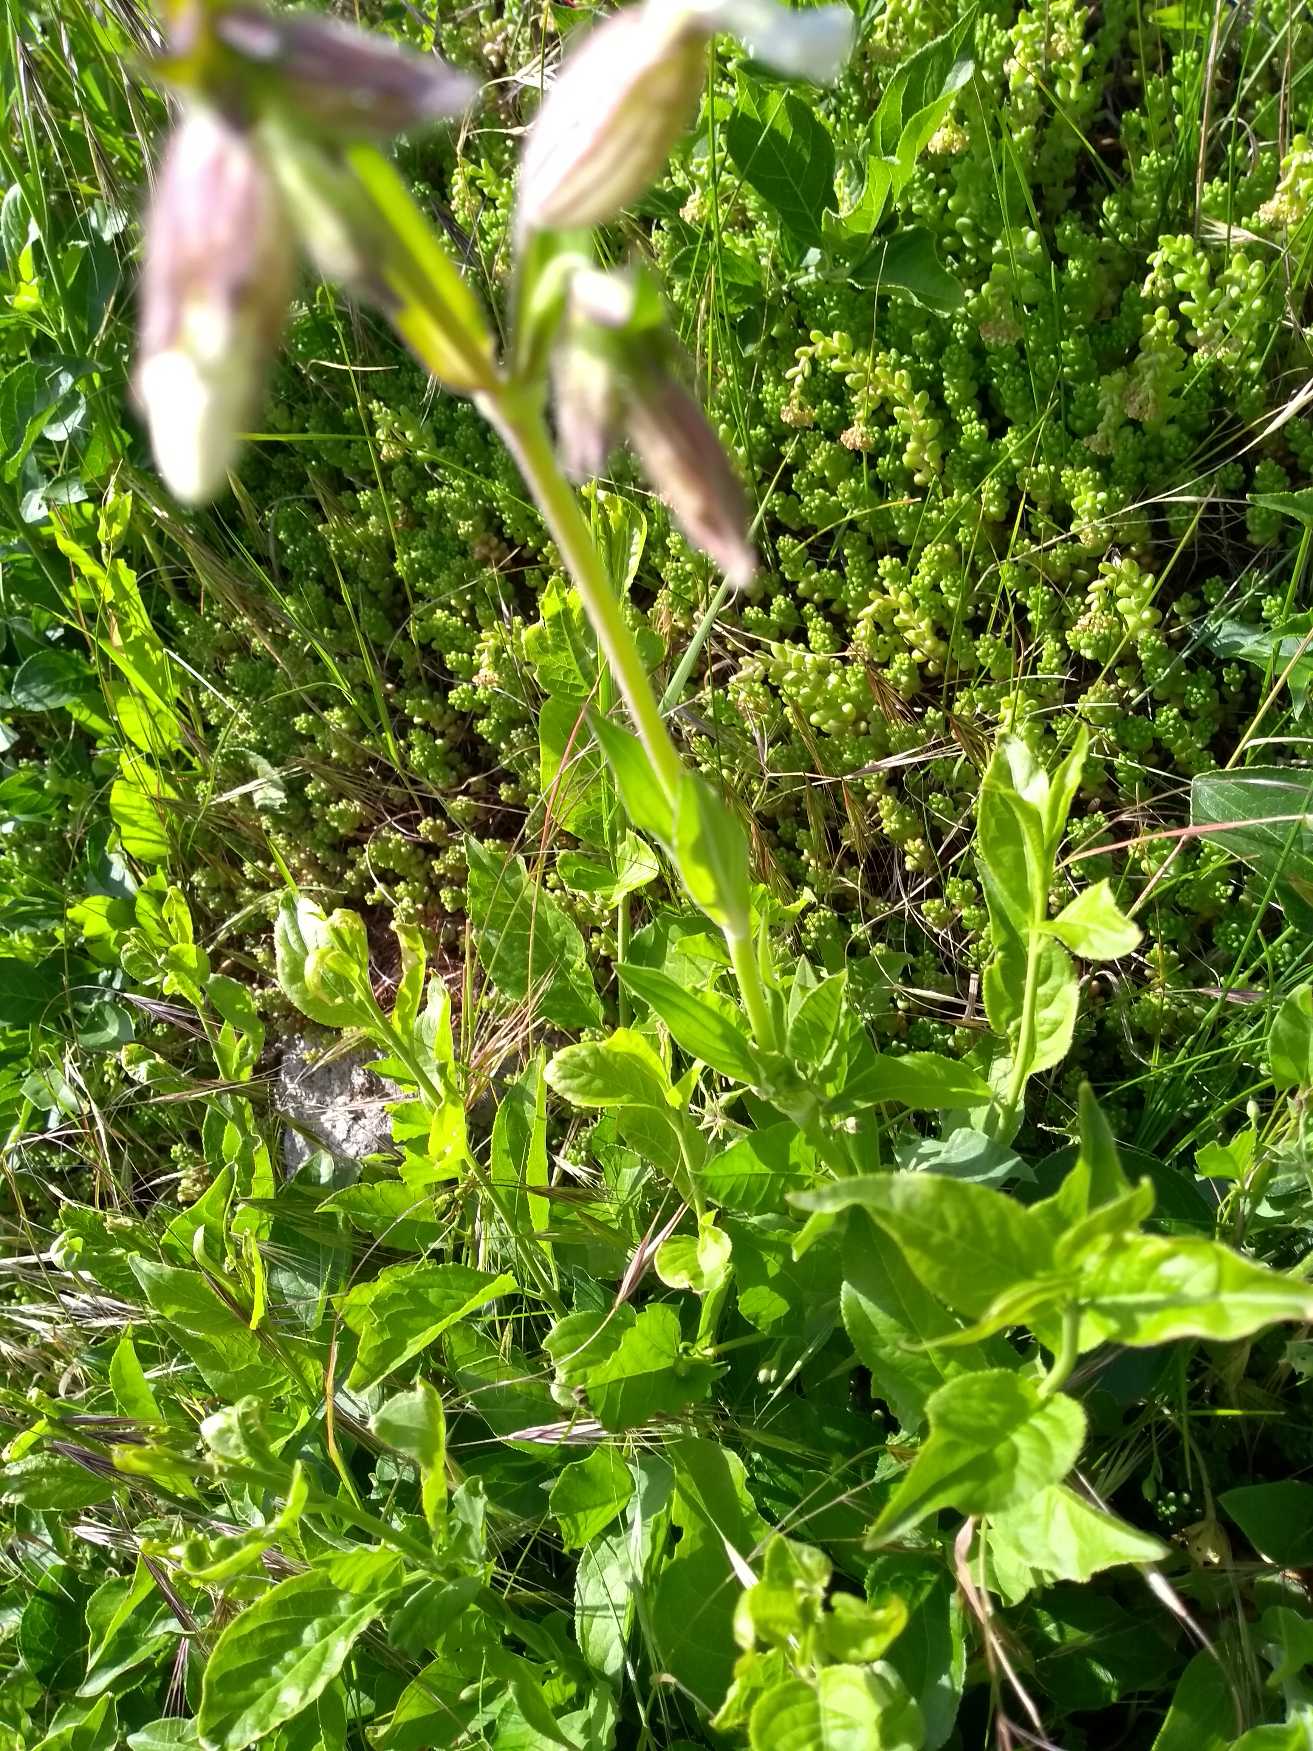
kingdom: Plantae
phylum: Tracheophyta
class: Magnoliopsida
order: Caryophyllales
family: Caryophyllaceae
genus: Silene
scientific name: Silene latifolia
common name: Aftenpragtstjerne
